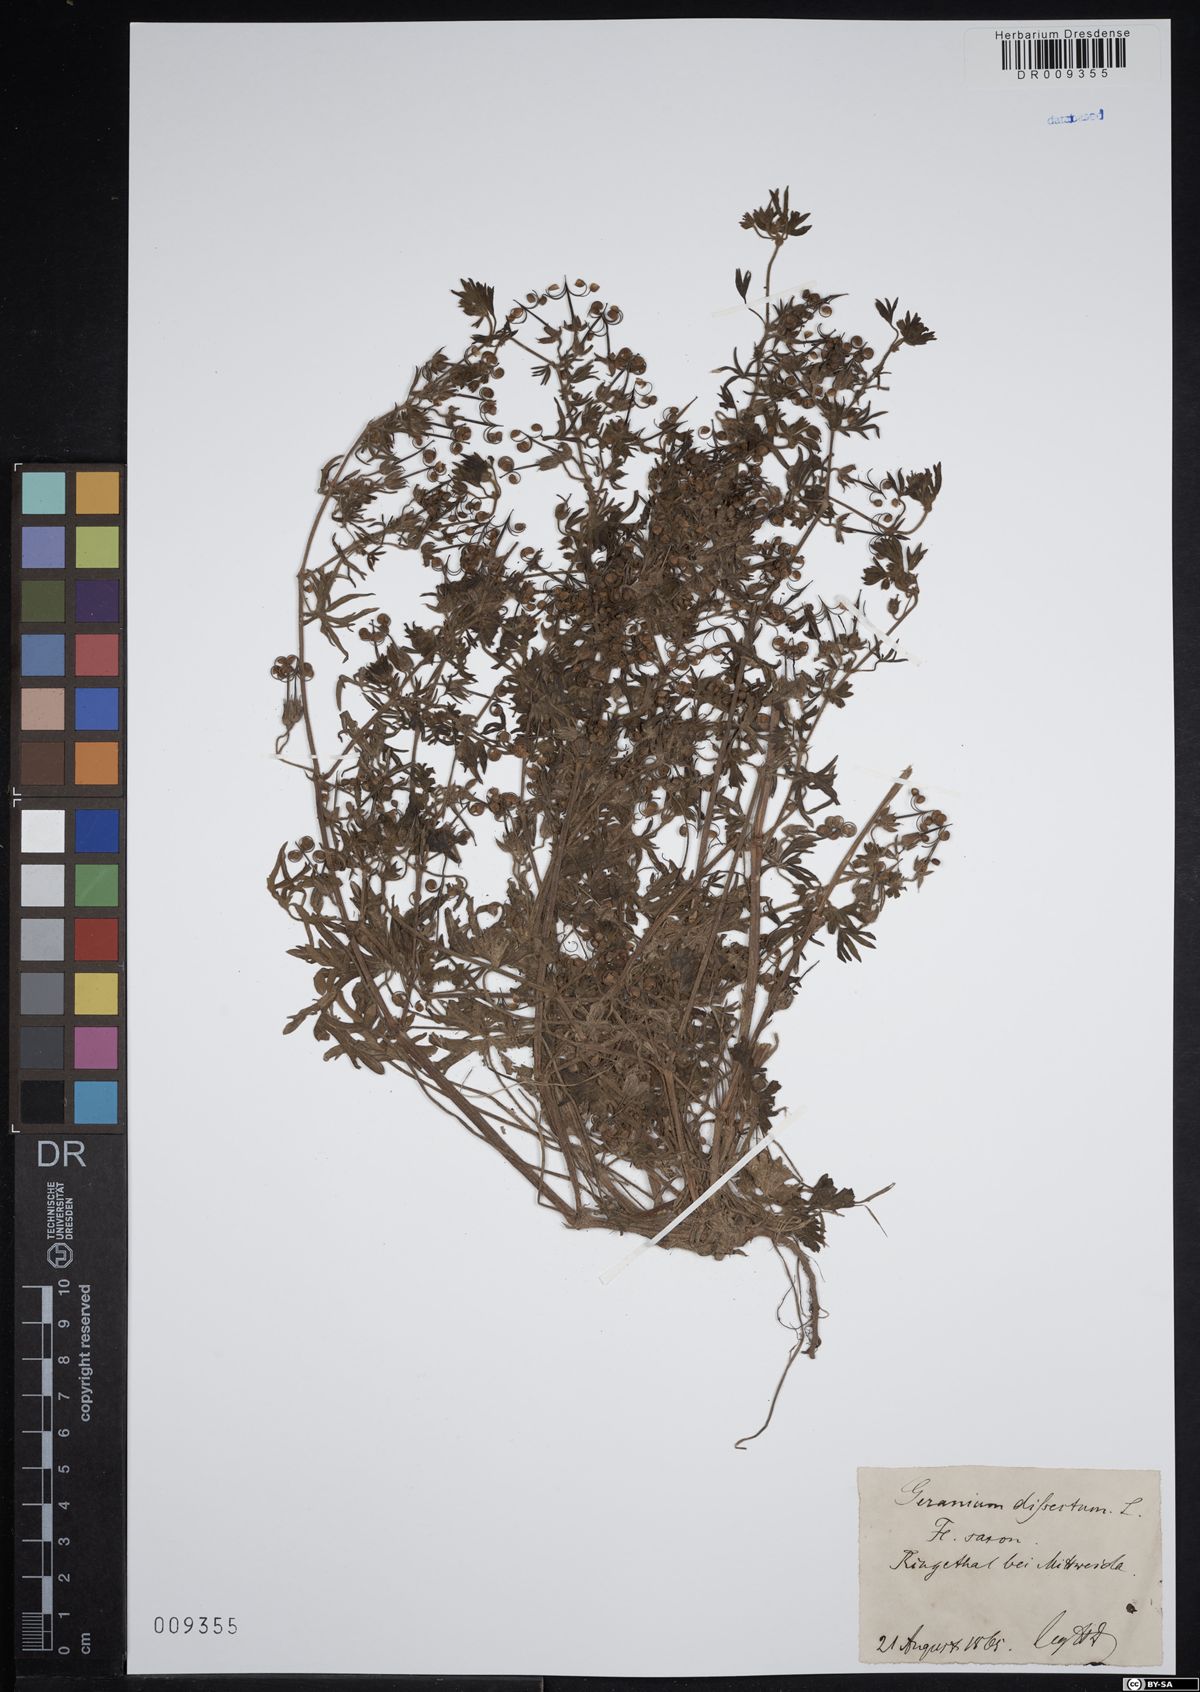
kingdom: Plantae
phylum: Tracheophyta
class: Magnoliopsida
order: Geraniales
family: Geraniaceae
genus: Geranium
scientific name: Geranium dissectum
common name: Cut-leaved crane's-bill
